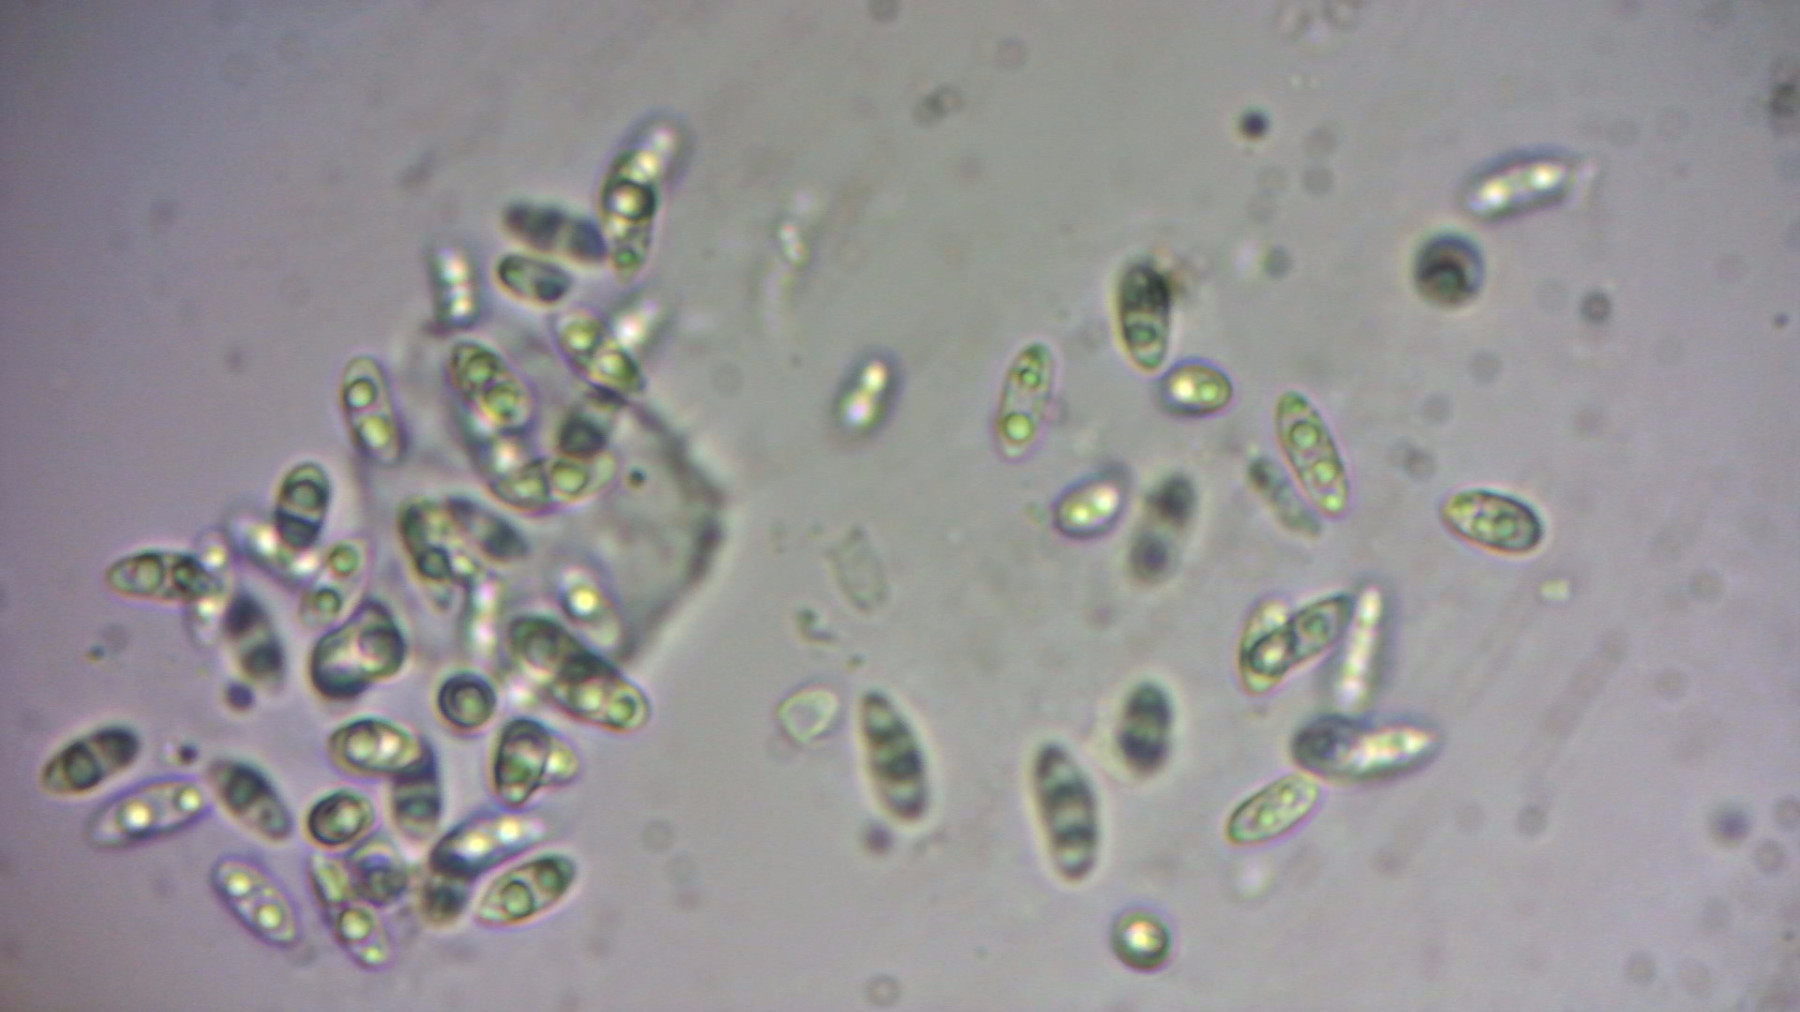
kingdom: Fungi
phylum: Ascomycota
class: Leotiomycetes
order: Helotiales
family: Godroniaceae
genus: Godronia
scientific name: Godronia ribis
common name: ribs-urneskive
